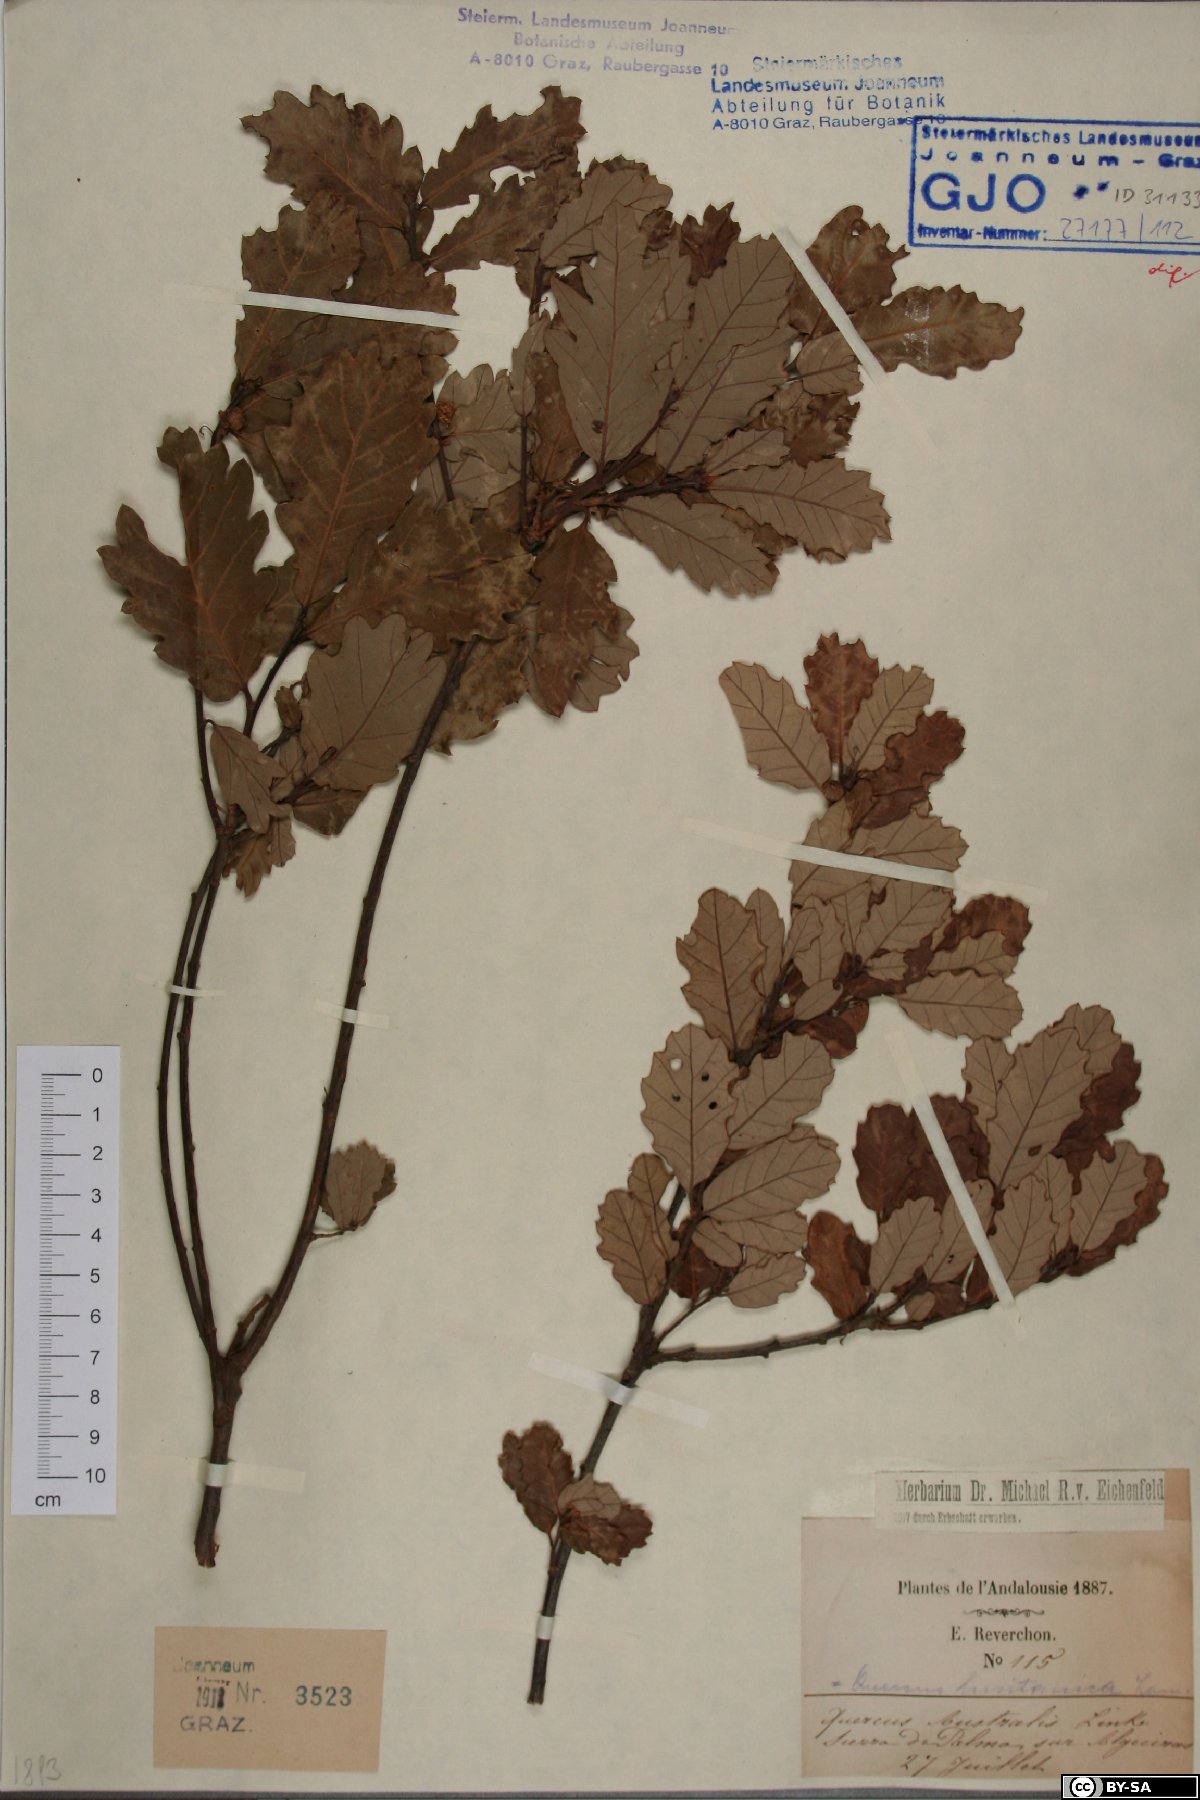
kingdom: Plantae
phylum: Tracheophyta
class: Magnoliopsida
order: Fagales
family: Fagaceae
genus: Quercus
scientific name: Quercus lusitanica
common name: Scrub gall oak
